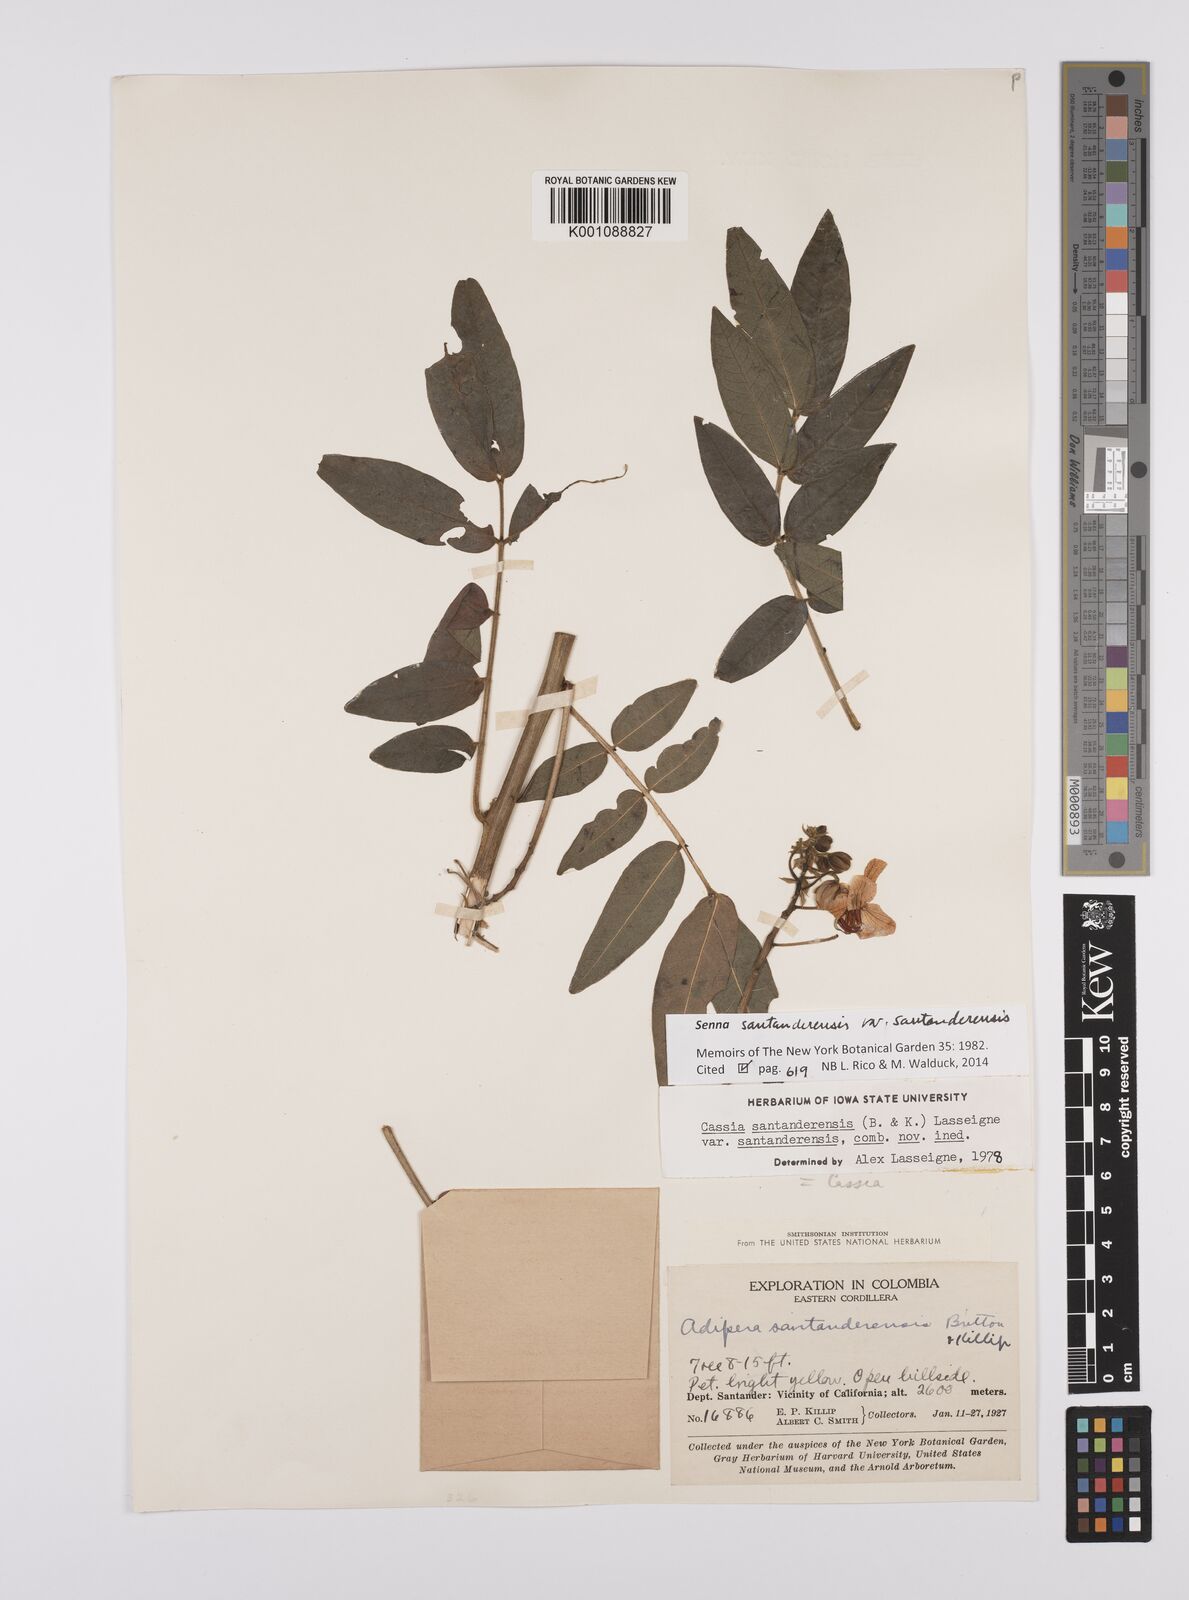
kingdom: Plantae
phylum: Tracheophyta
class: Magnoliopsida
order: Fabales
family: Fabaceae
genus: Senna
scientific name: Senna santanderensis
